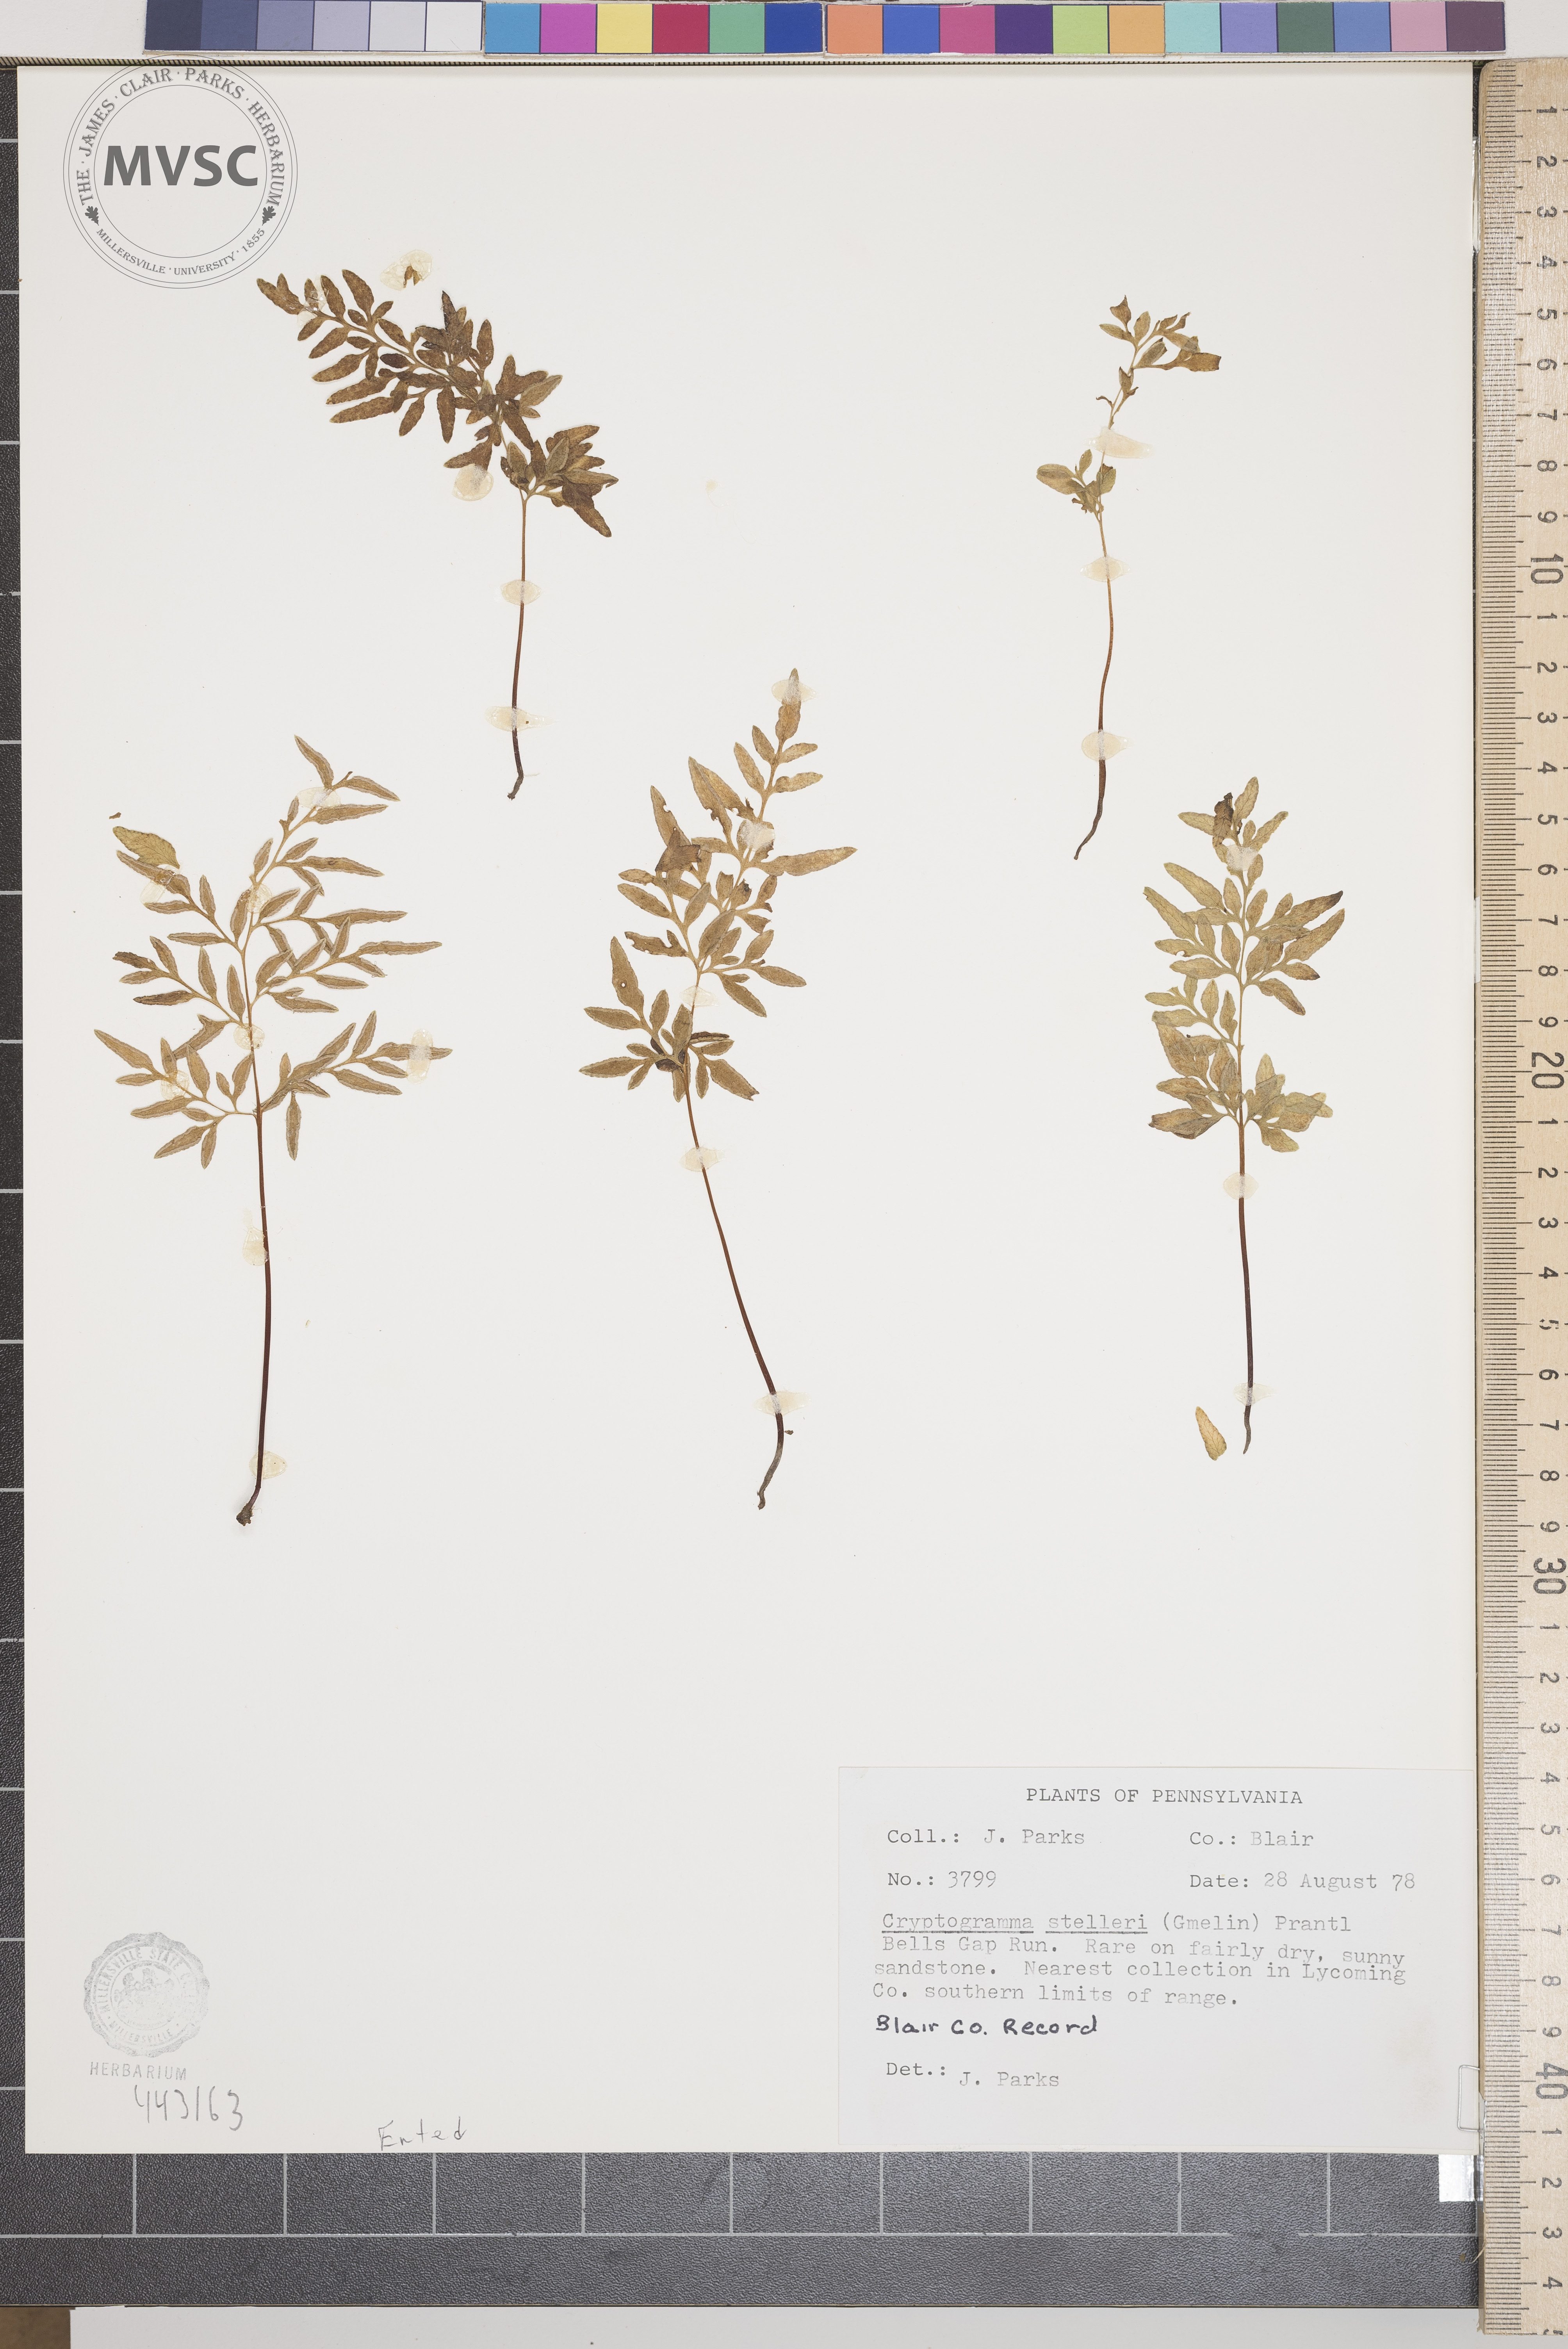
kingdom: Plantae
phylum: Tracheophyta
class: Polypodiopsida
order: Polypodiales
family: Pteridaceae
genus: Cryptogramma
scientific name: Cryptogramma stelleri
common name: Cliff-brake
